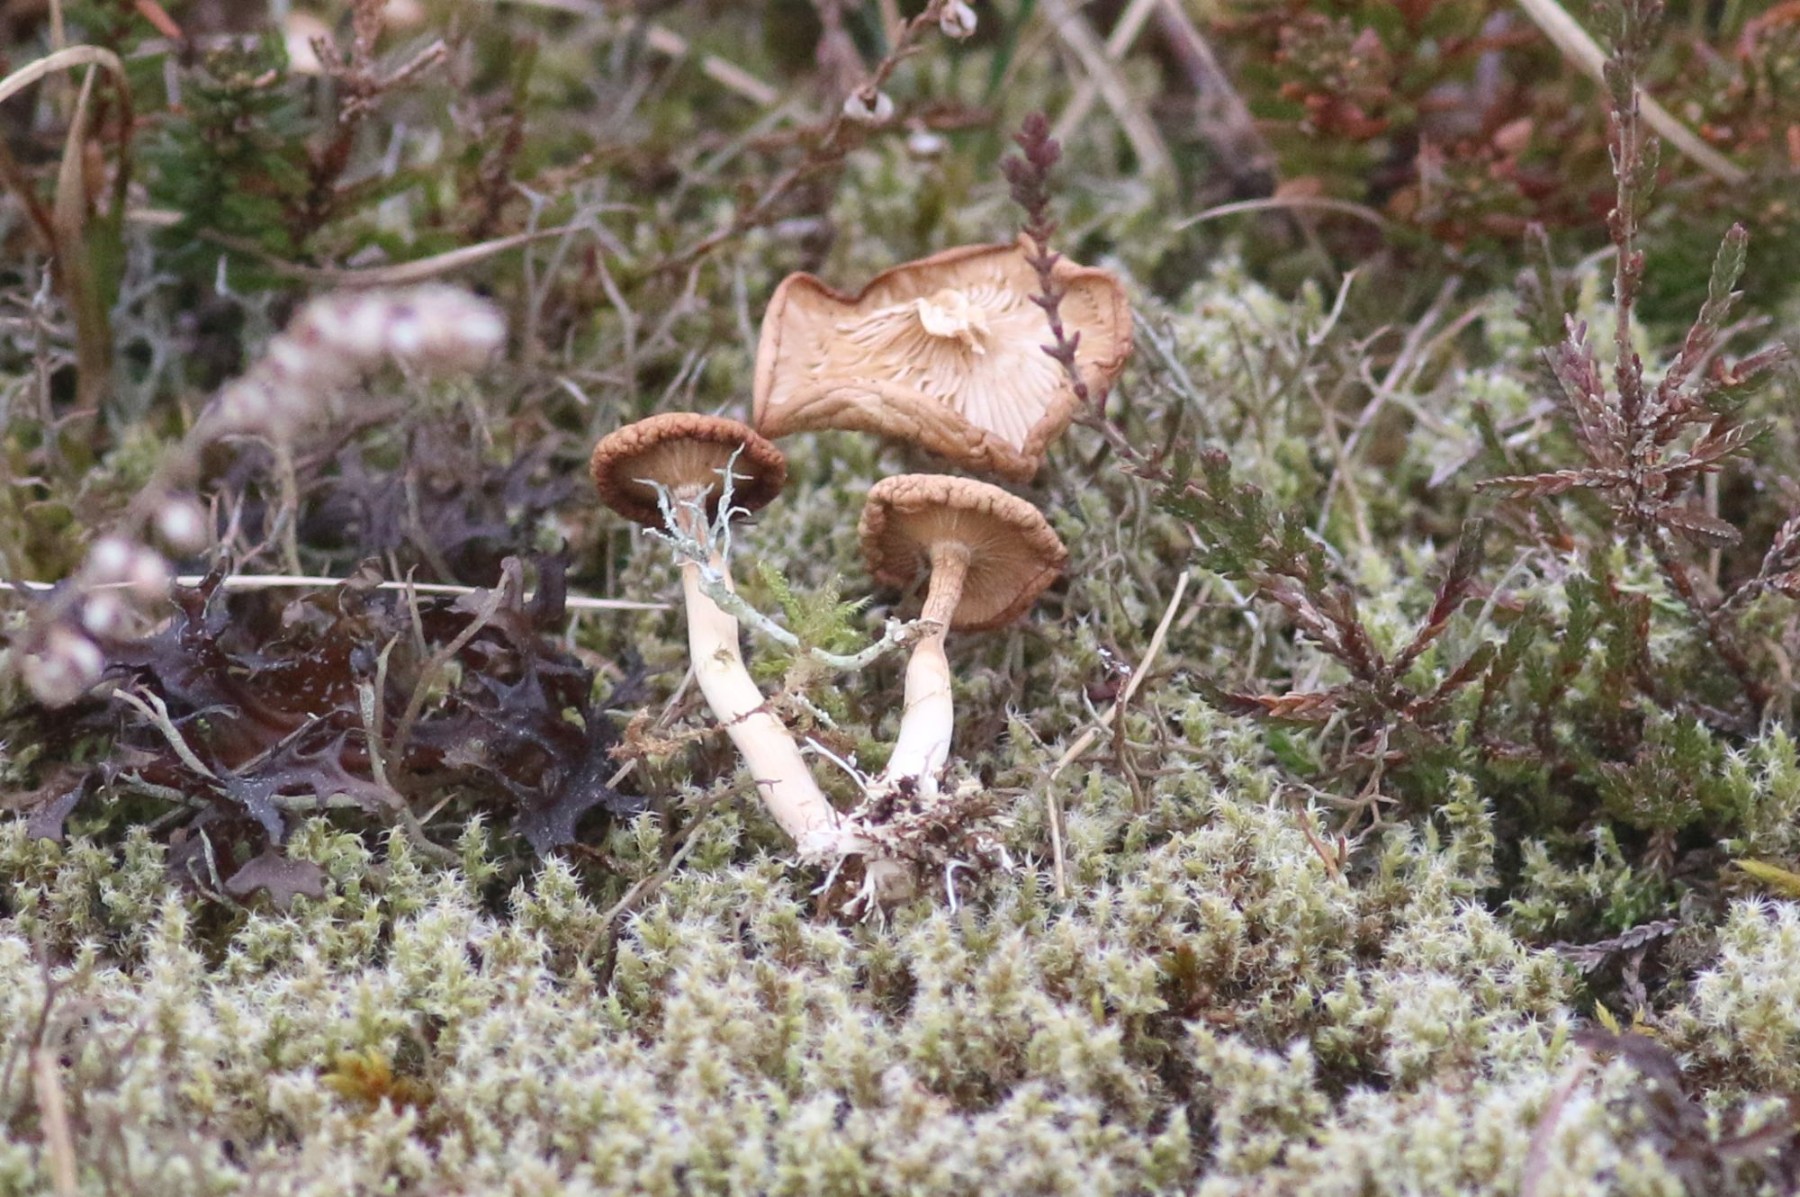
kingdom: Fungi
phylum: Basidiomycota
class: Agaricomycetes
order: Agaricales
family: Tricholomataceae
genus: Rhizocybe
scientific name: Rhizocybe vermicularis
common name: hyfestrengs-tragthat
